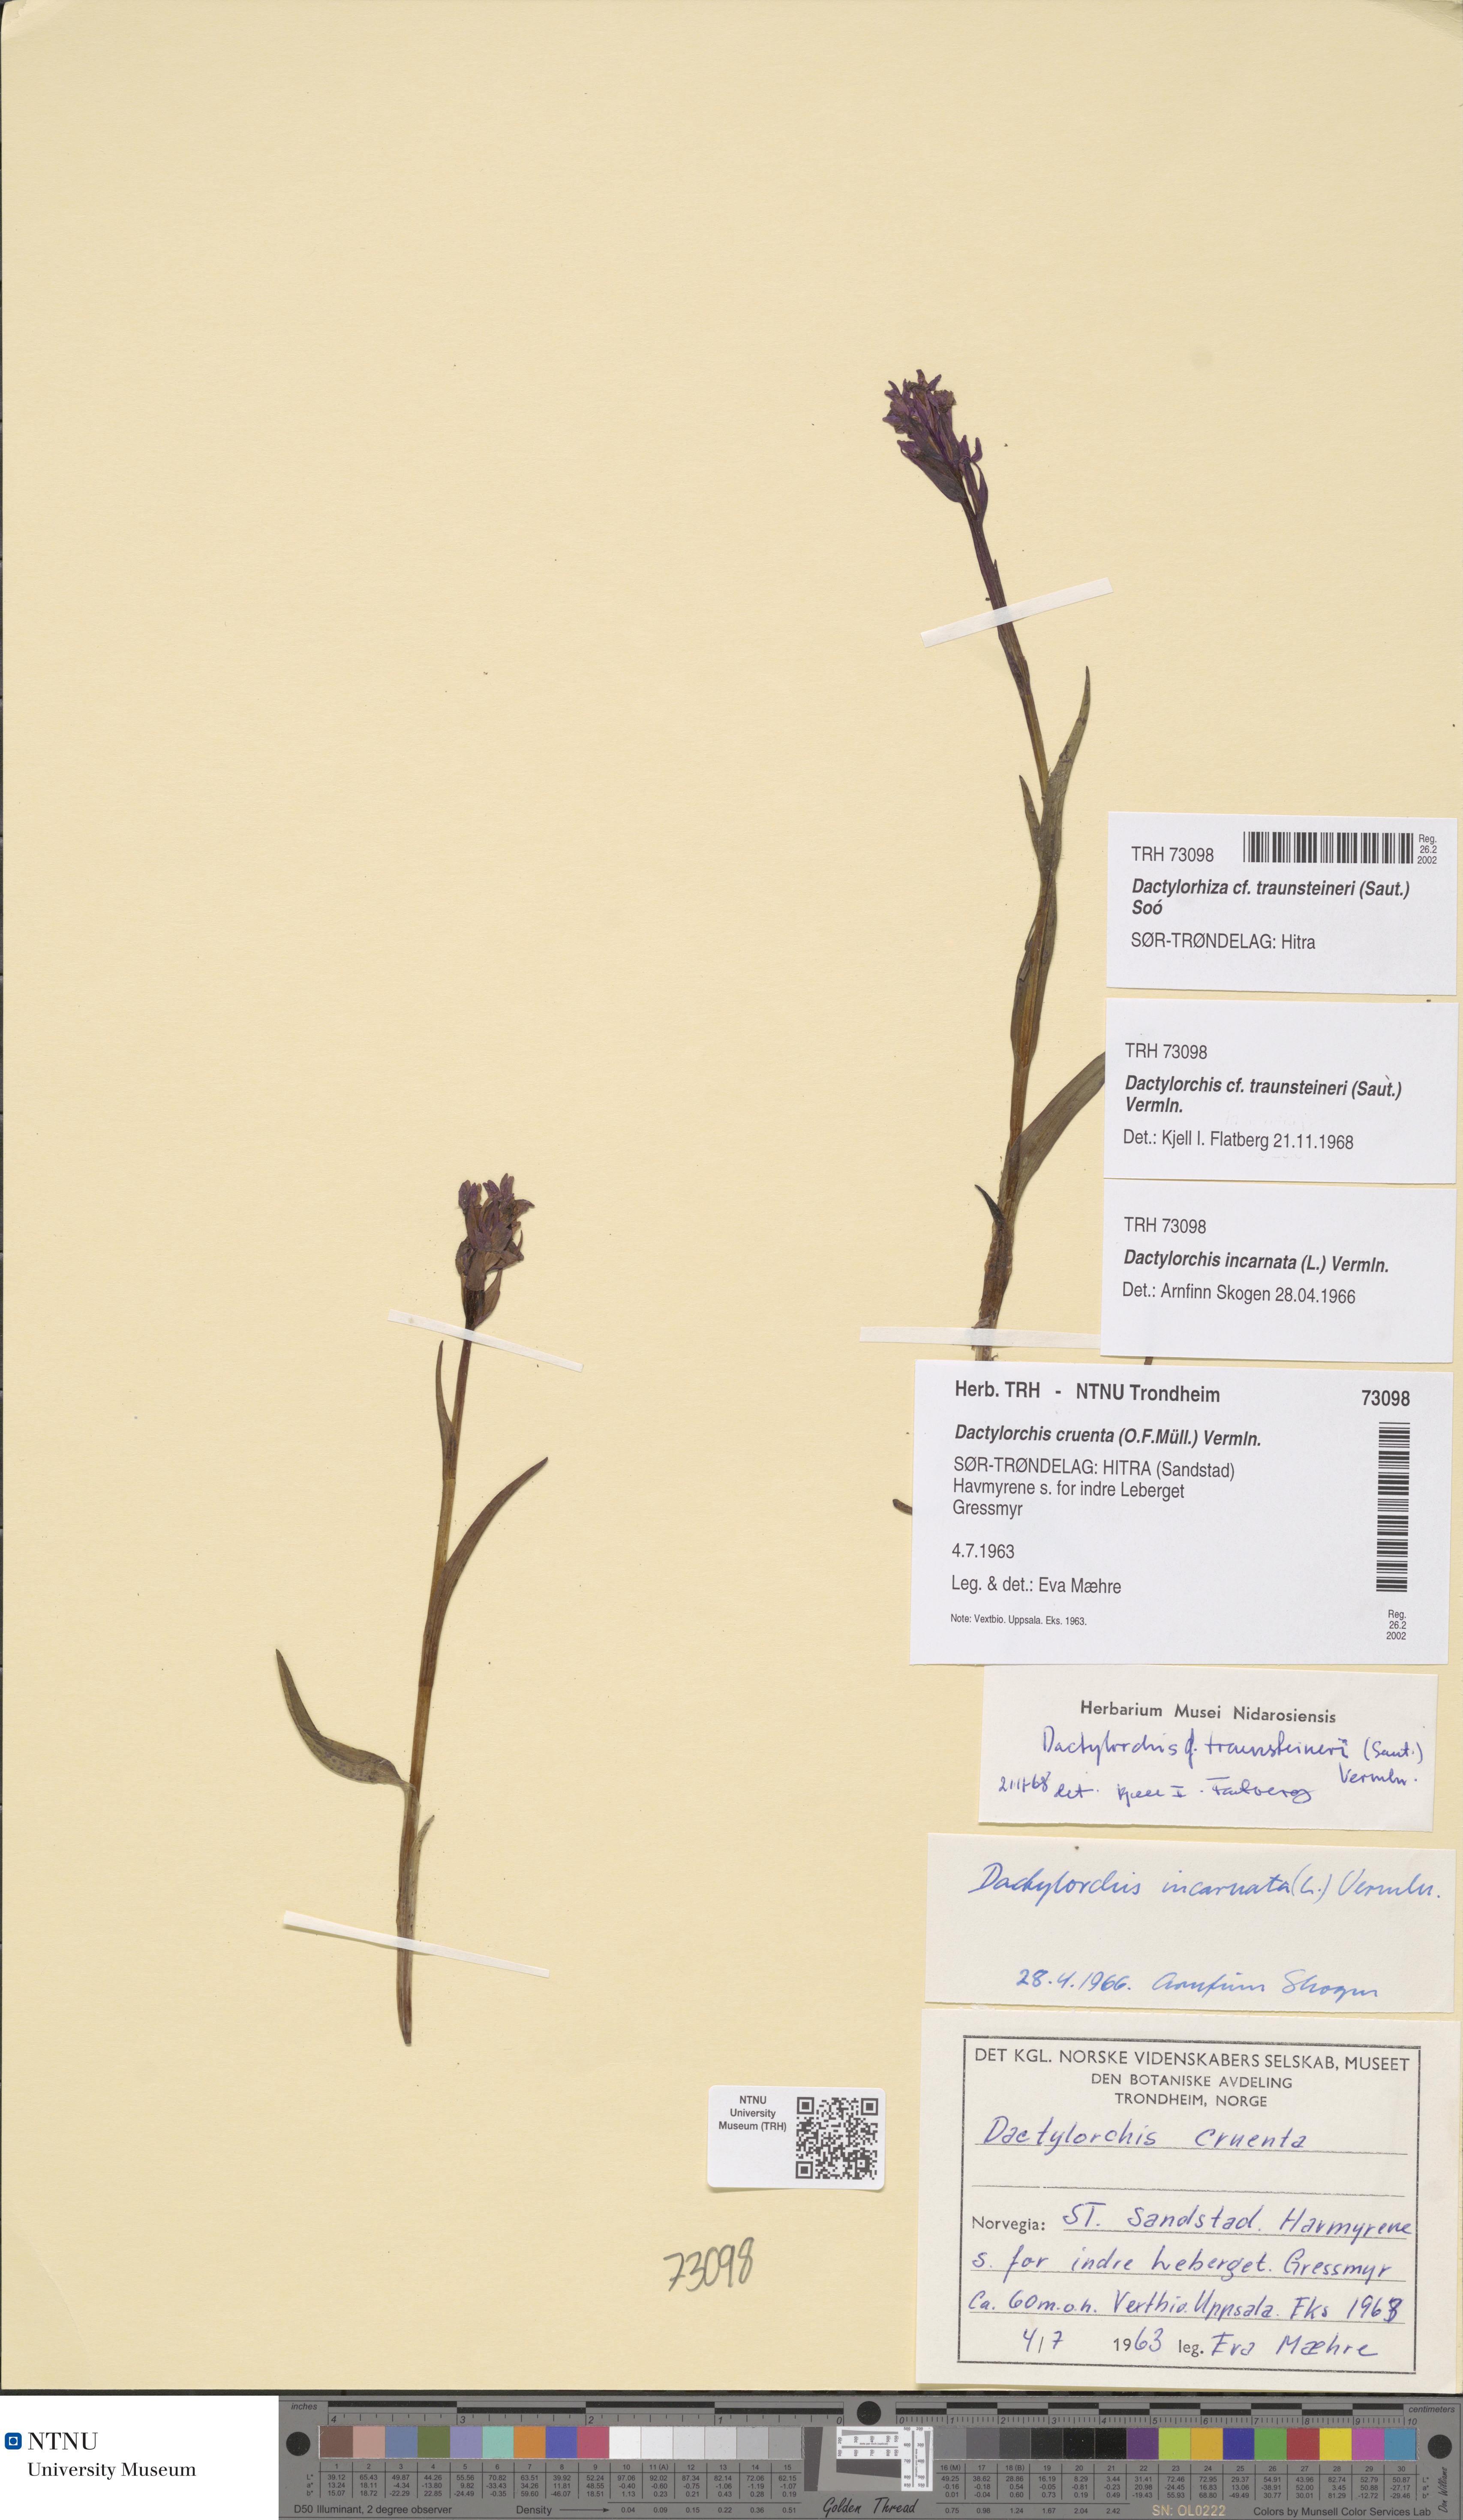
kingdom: Plantae
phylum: Tracheophyta
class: Liliopsida
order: Asparagales
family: Orchidaceae
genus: Dactylorhiza
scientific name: Dactylorhiza majalis
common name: Marsh orchid
